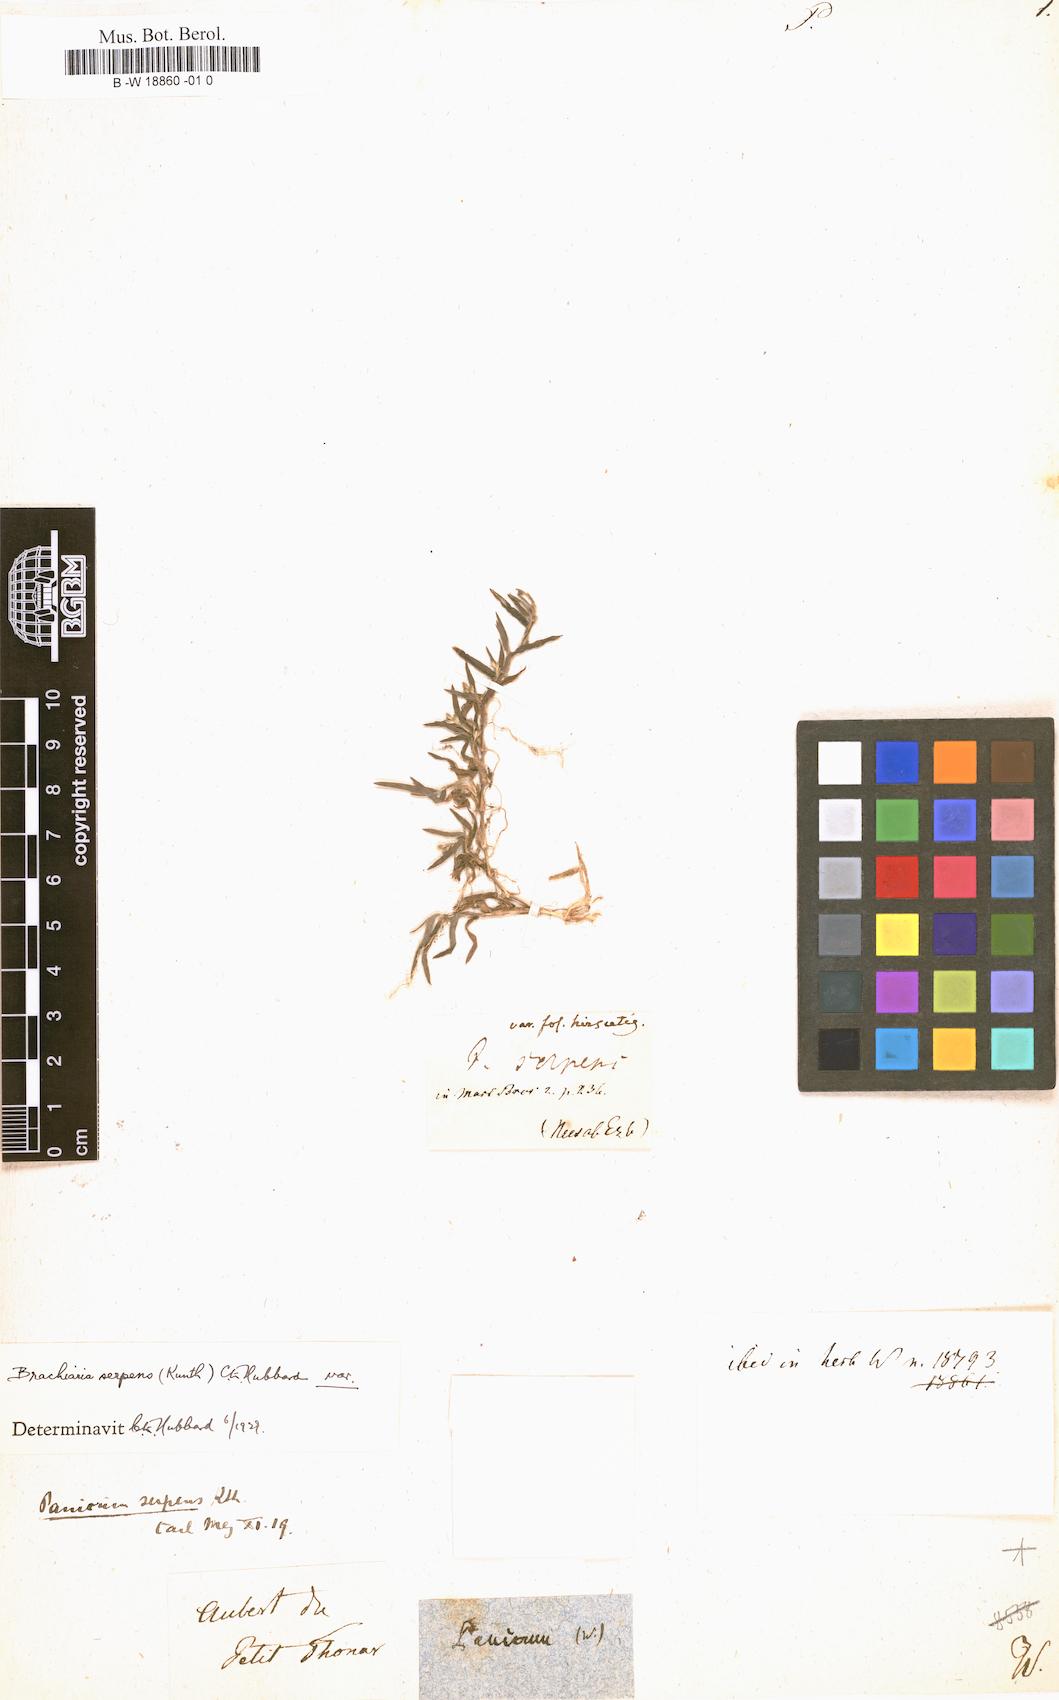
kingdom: Plantae
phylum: Tracheophyta
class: Liliopsida
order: Poales
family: Poaceae
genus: Panicum
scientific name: Panicum
